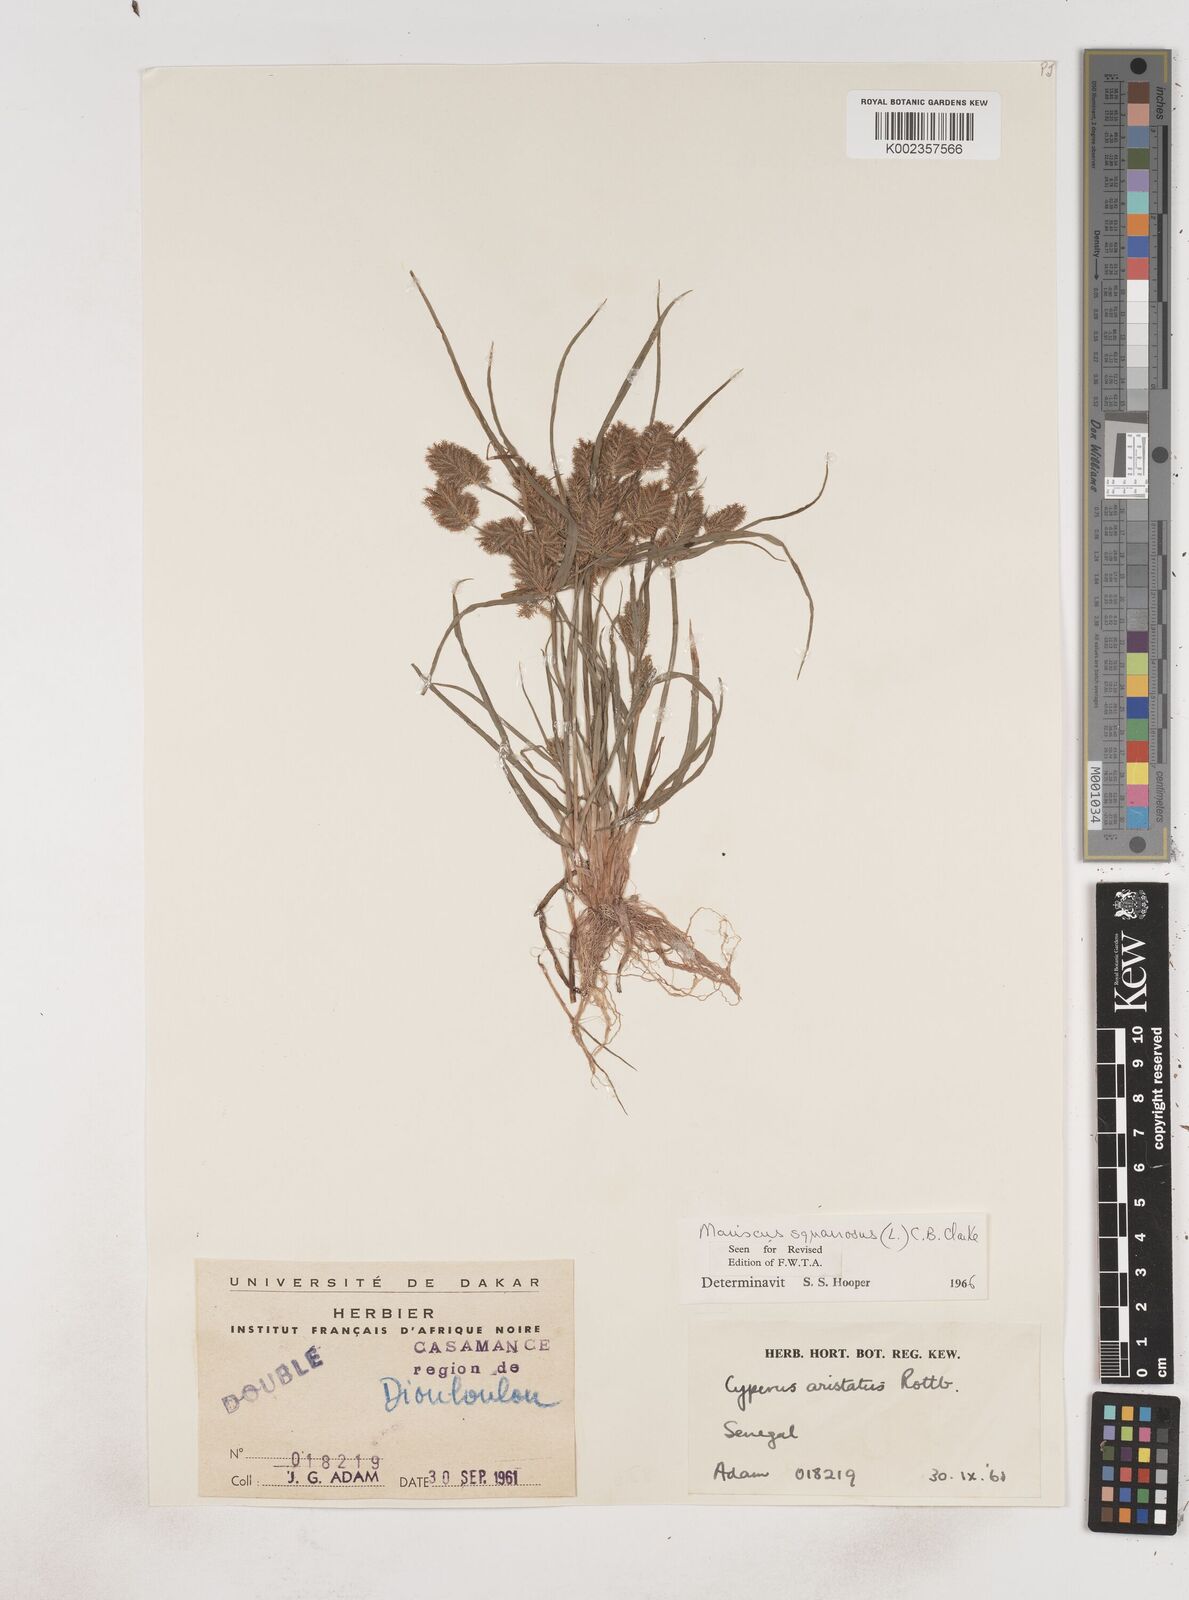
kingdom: Plantae
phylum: Tracheophyta
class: Liliopsida
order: Poales
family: Cyperaceae
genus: Cyperus
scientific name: Cyperus squarrosus
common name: Awned cyperus
